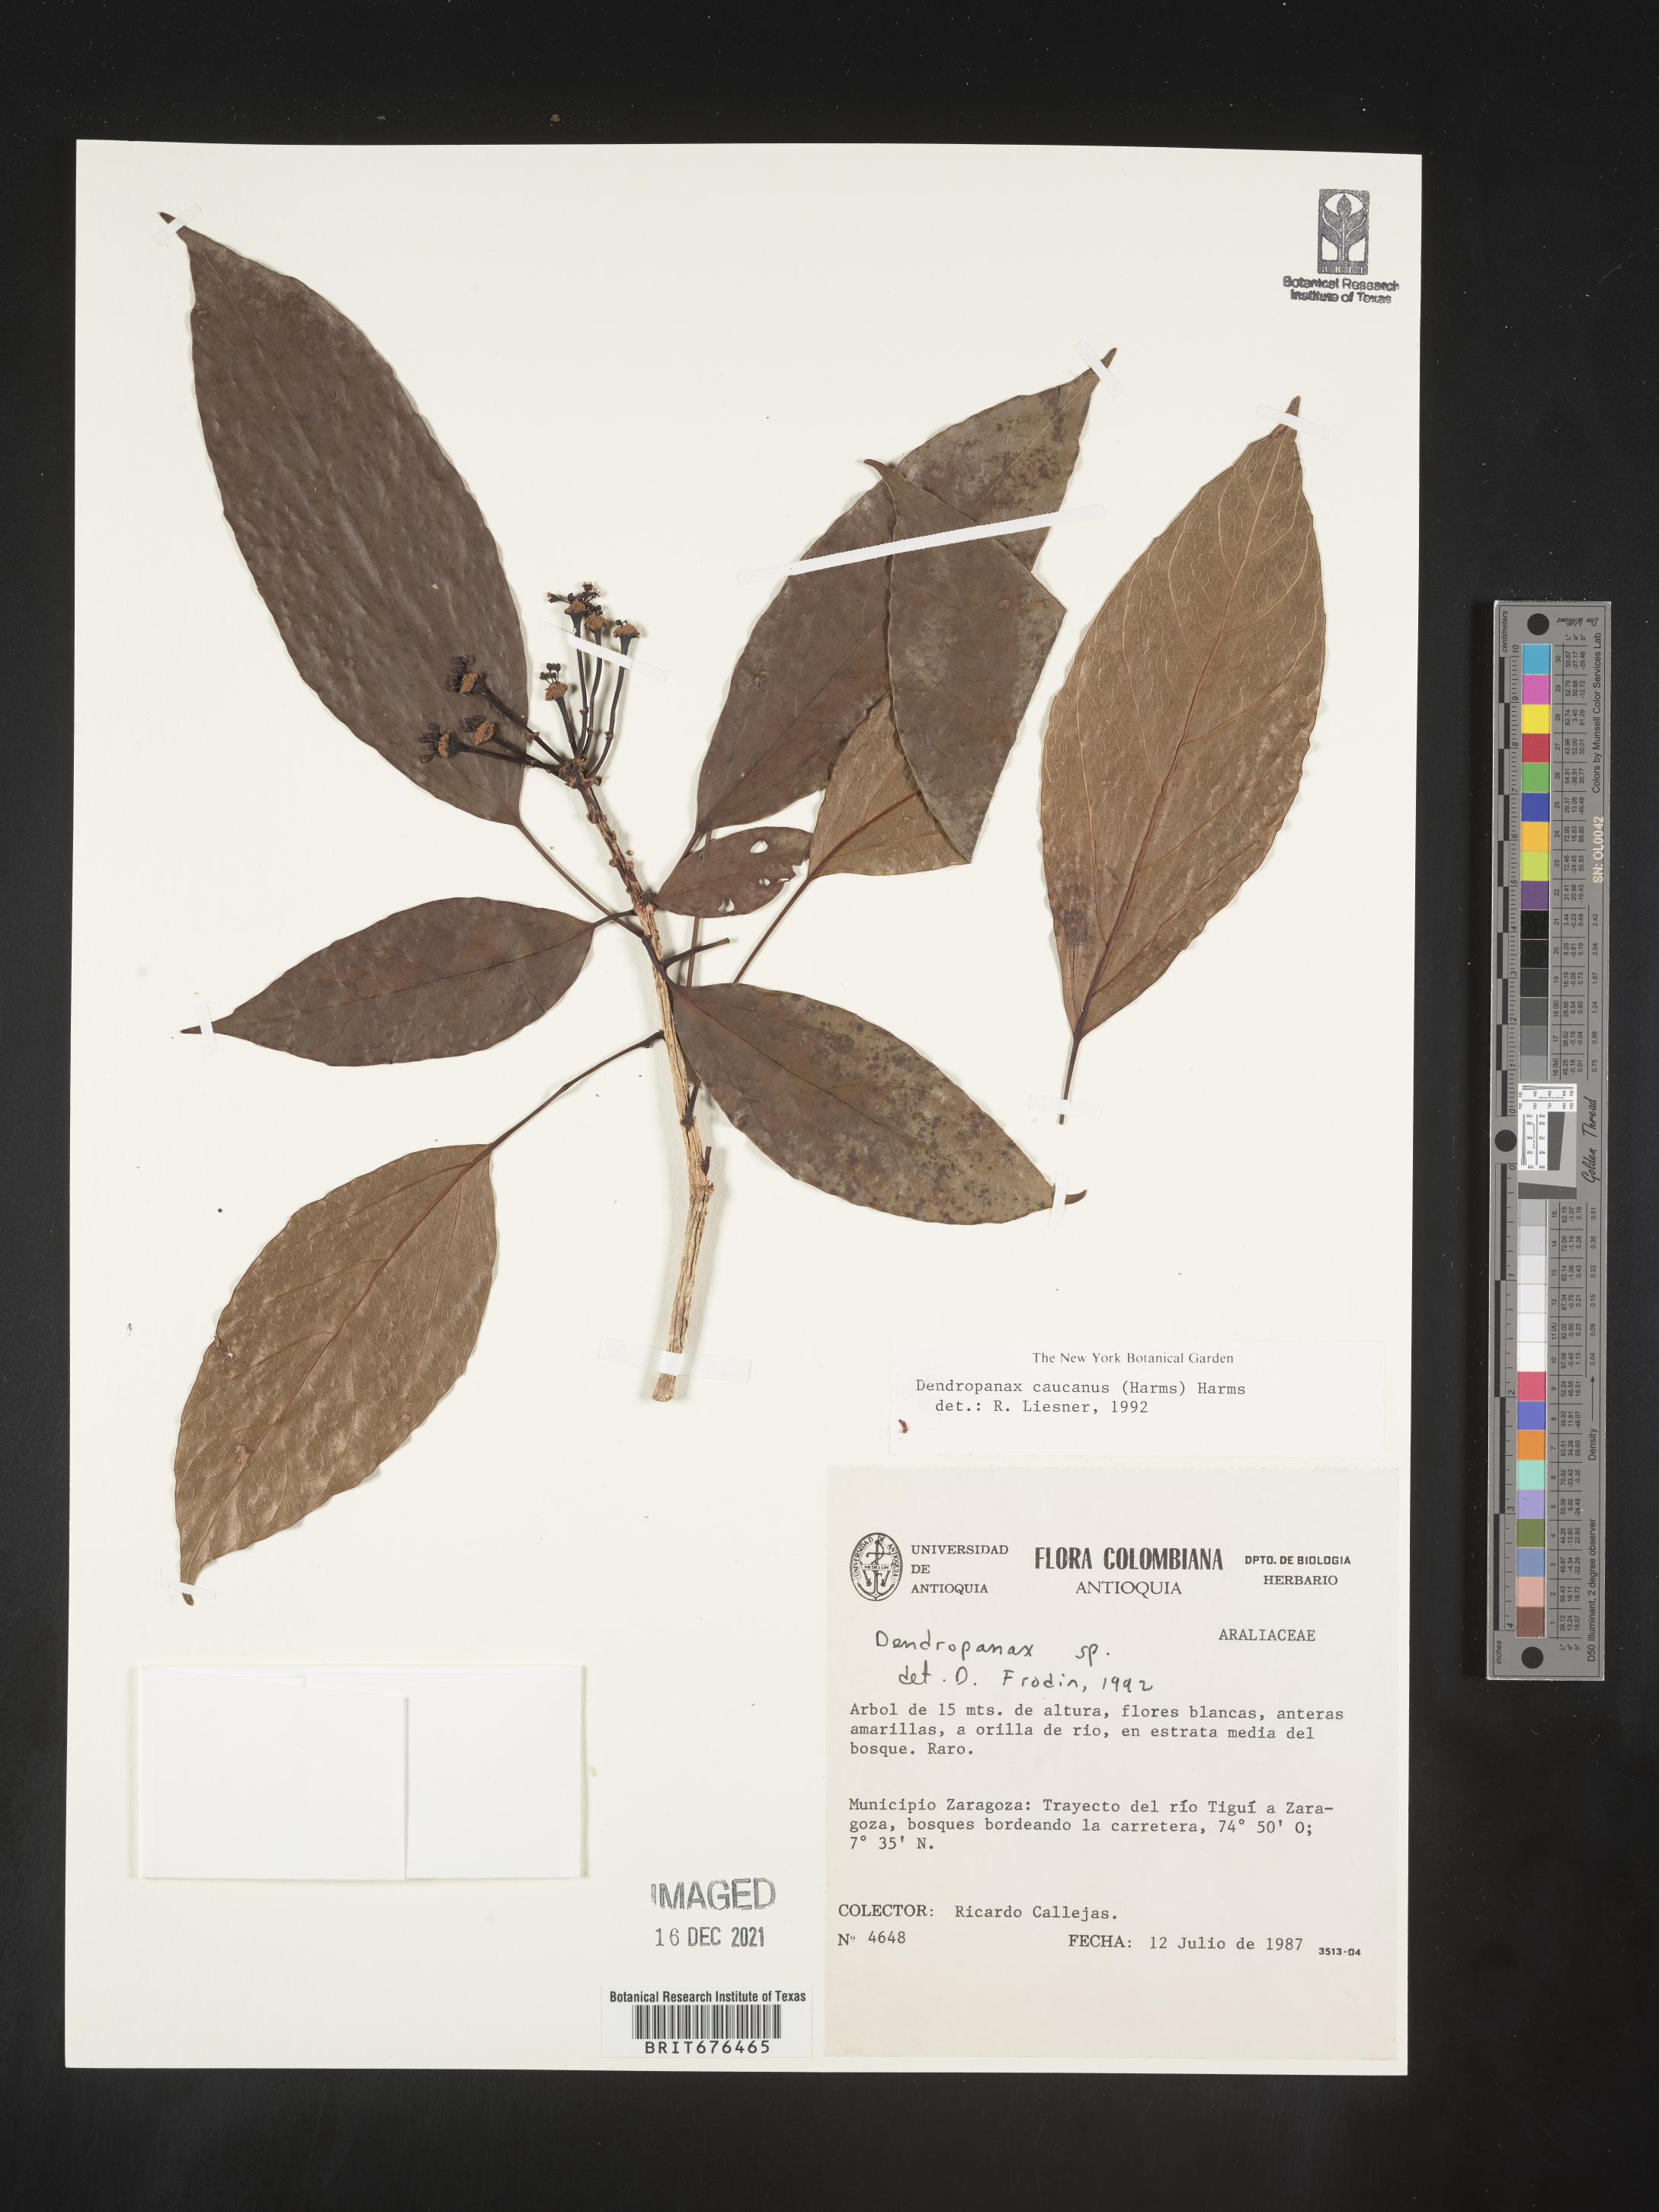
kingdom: Plantae
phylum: Tracheophyta
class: Magnoliopsida
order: Apiales
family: Araliaceae
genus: Dendropanax
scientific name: Dendropanax
